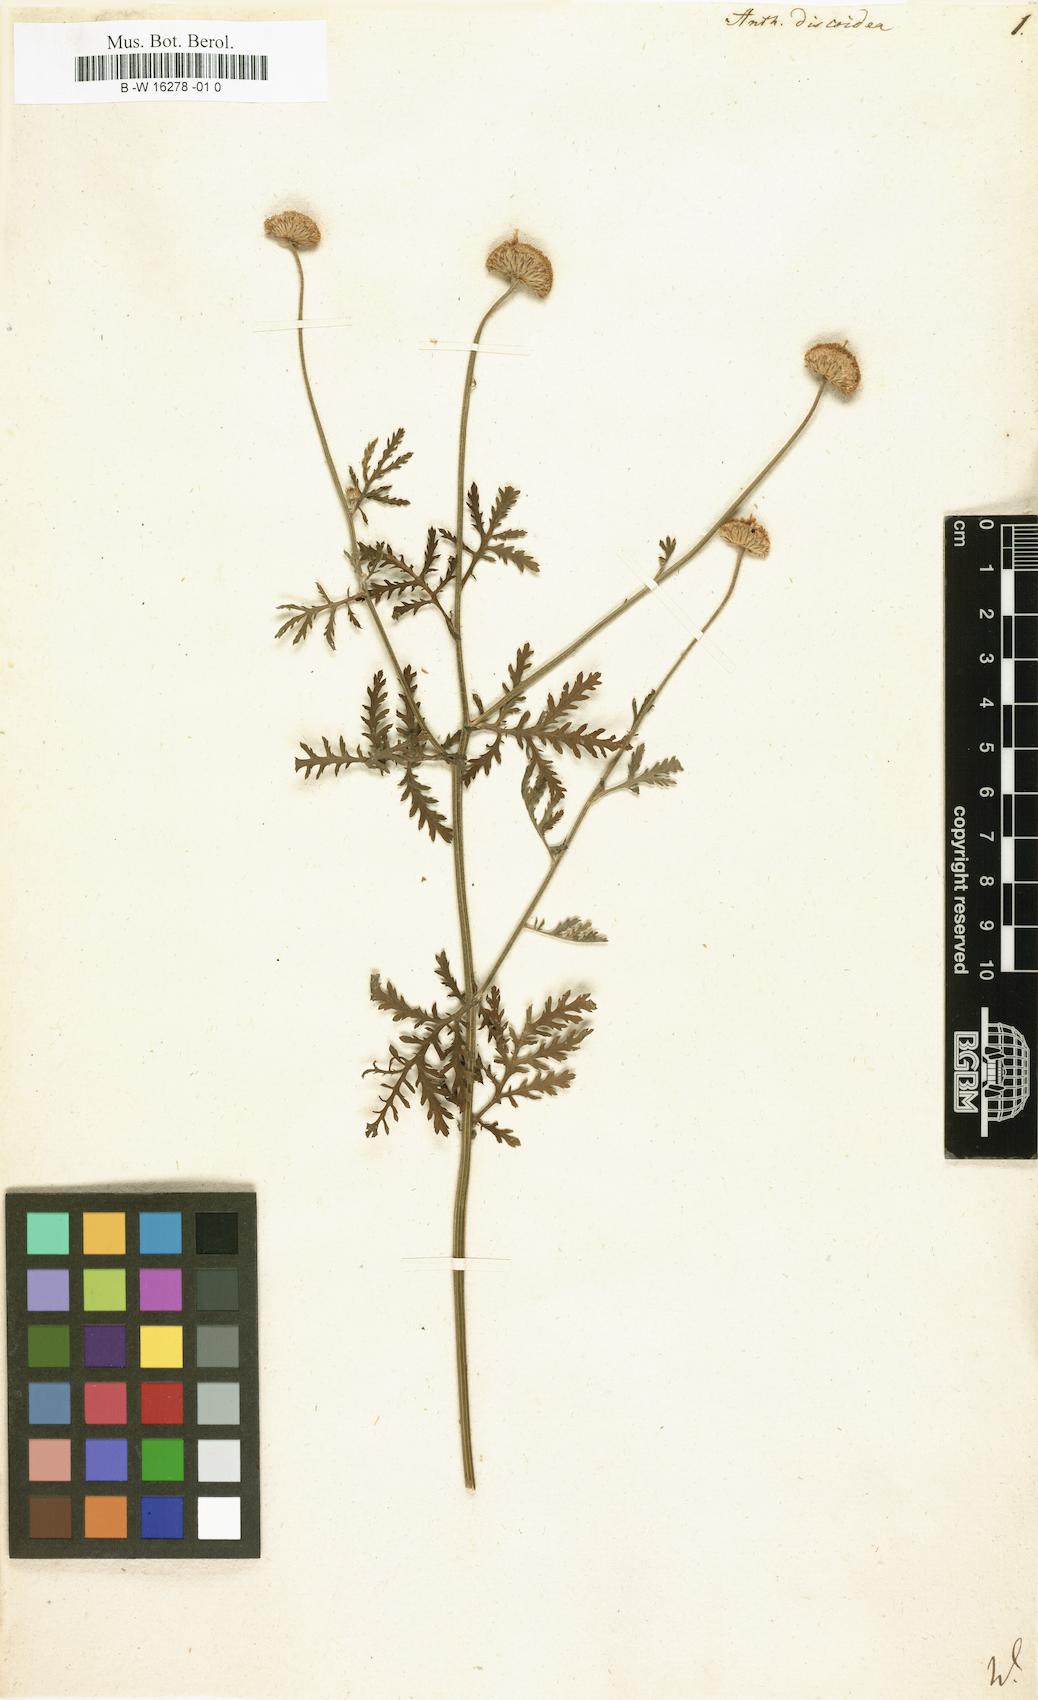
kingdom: Plantae
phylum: Tracheophyta
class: Magnoliopsida
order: Asterales
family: Asteraceae
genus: Cota
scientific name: Cota tinctoria
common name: Golden chamomile
